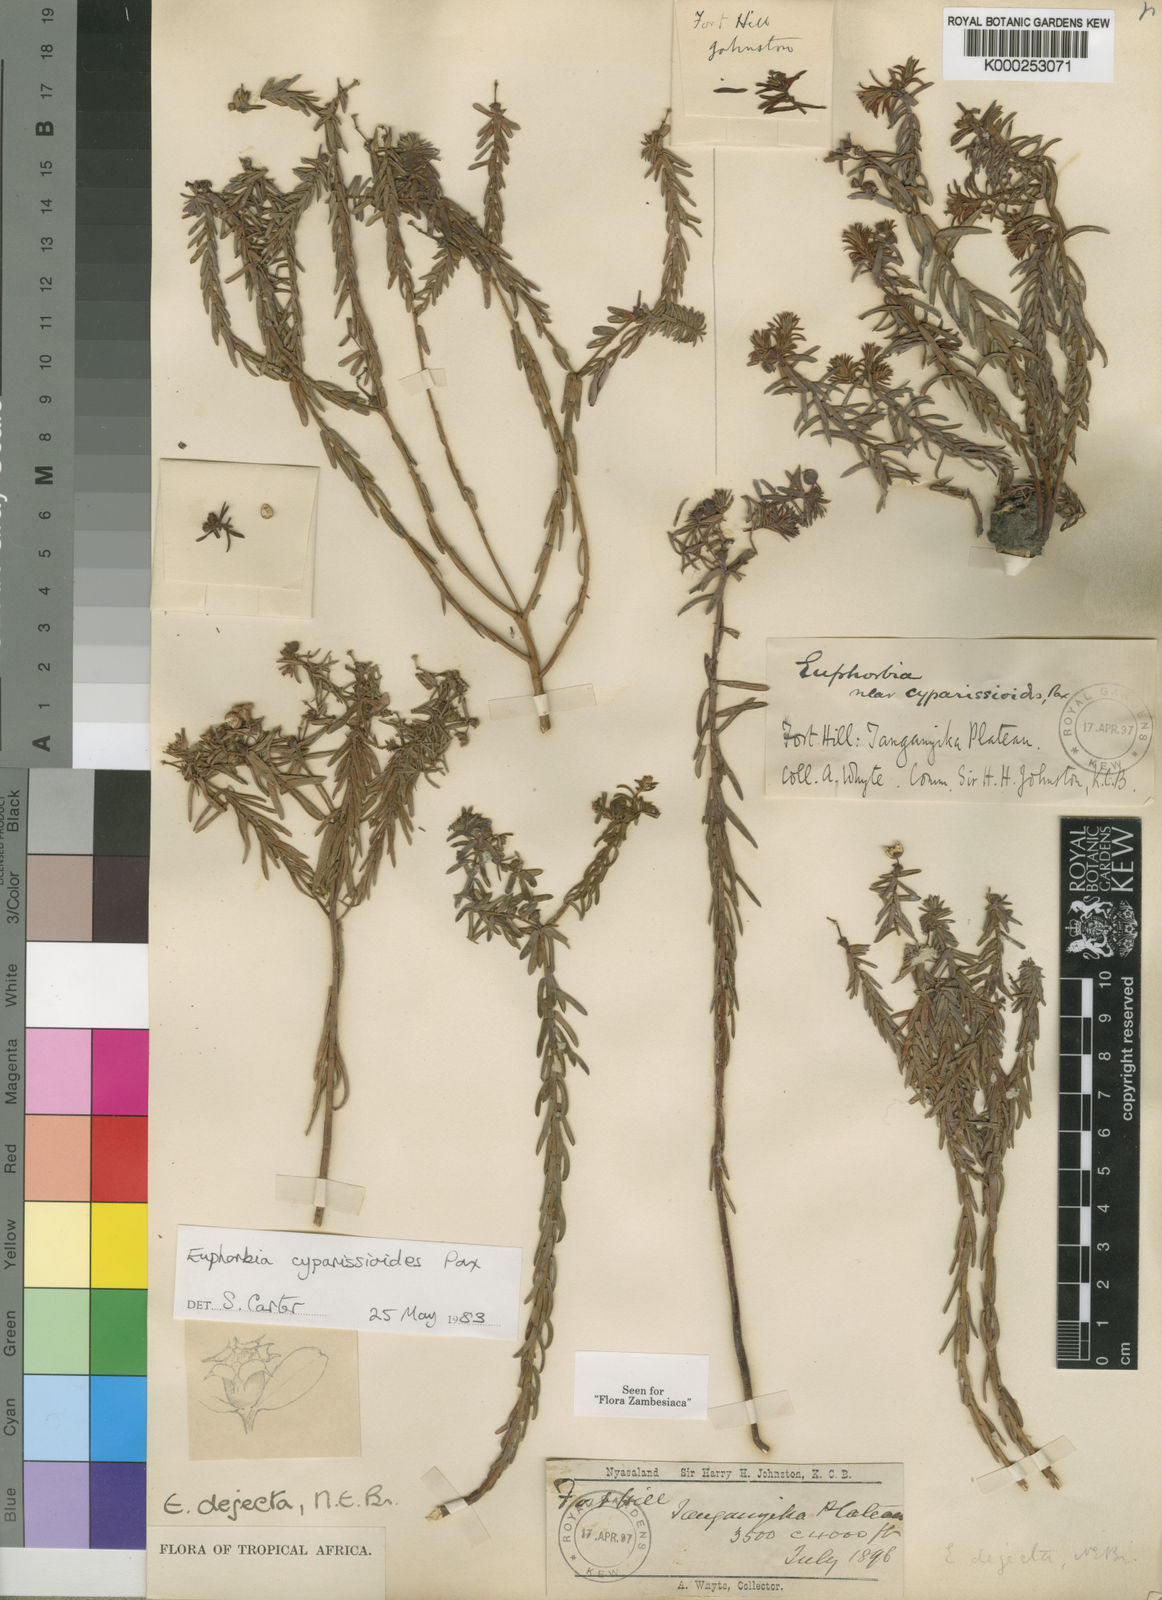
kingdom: Plantae
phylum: Tracheophyta
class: Magnoliopsida
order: Malpighiales
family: Euphorbiaceae
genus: Euphorbia
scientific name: Euphorbia cyparissioides
